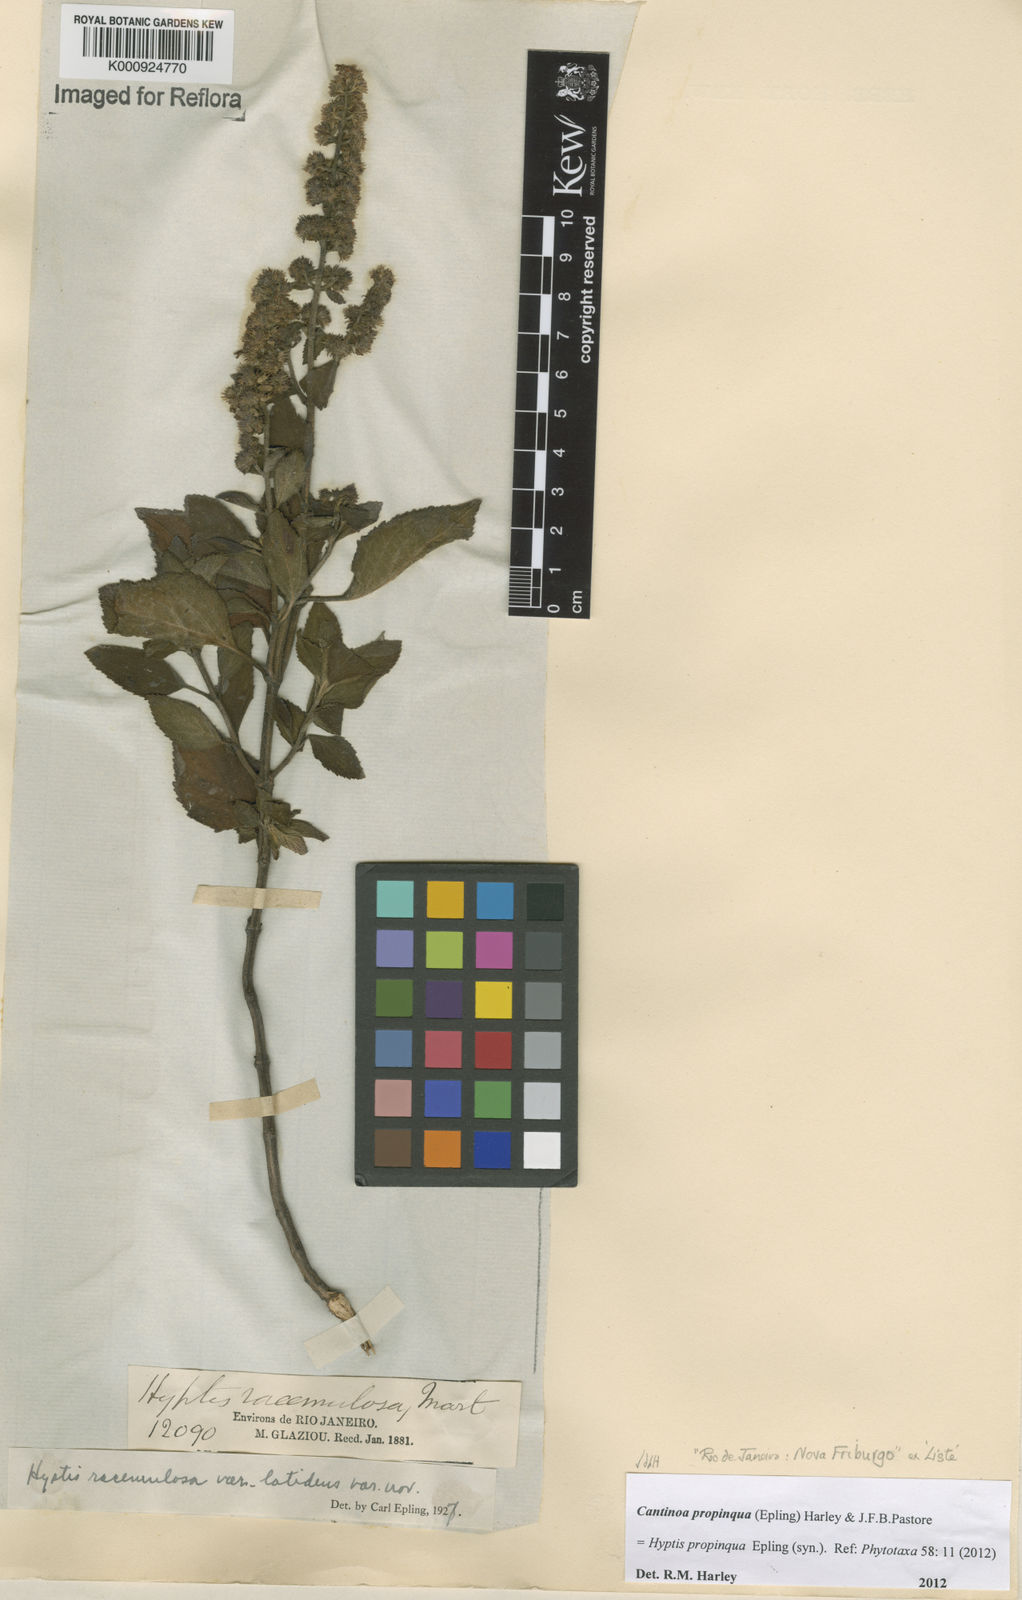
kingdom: Plantae
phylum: Tracheophyta
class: Magnoliopsida
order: Lamiales
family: Lamiaceae
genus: Cantinoa
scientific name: Cantinoa propinqua
